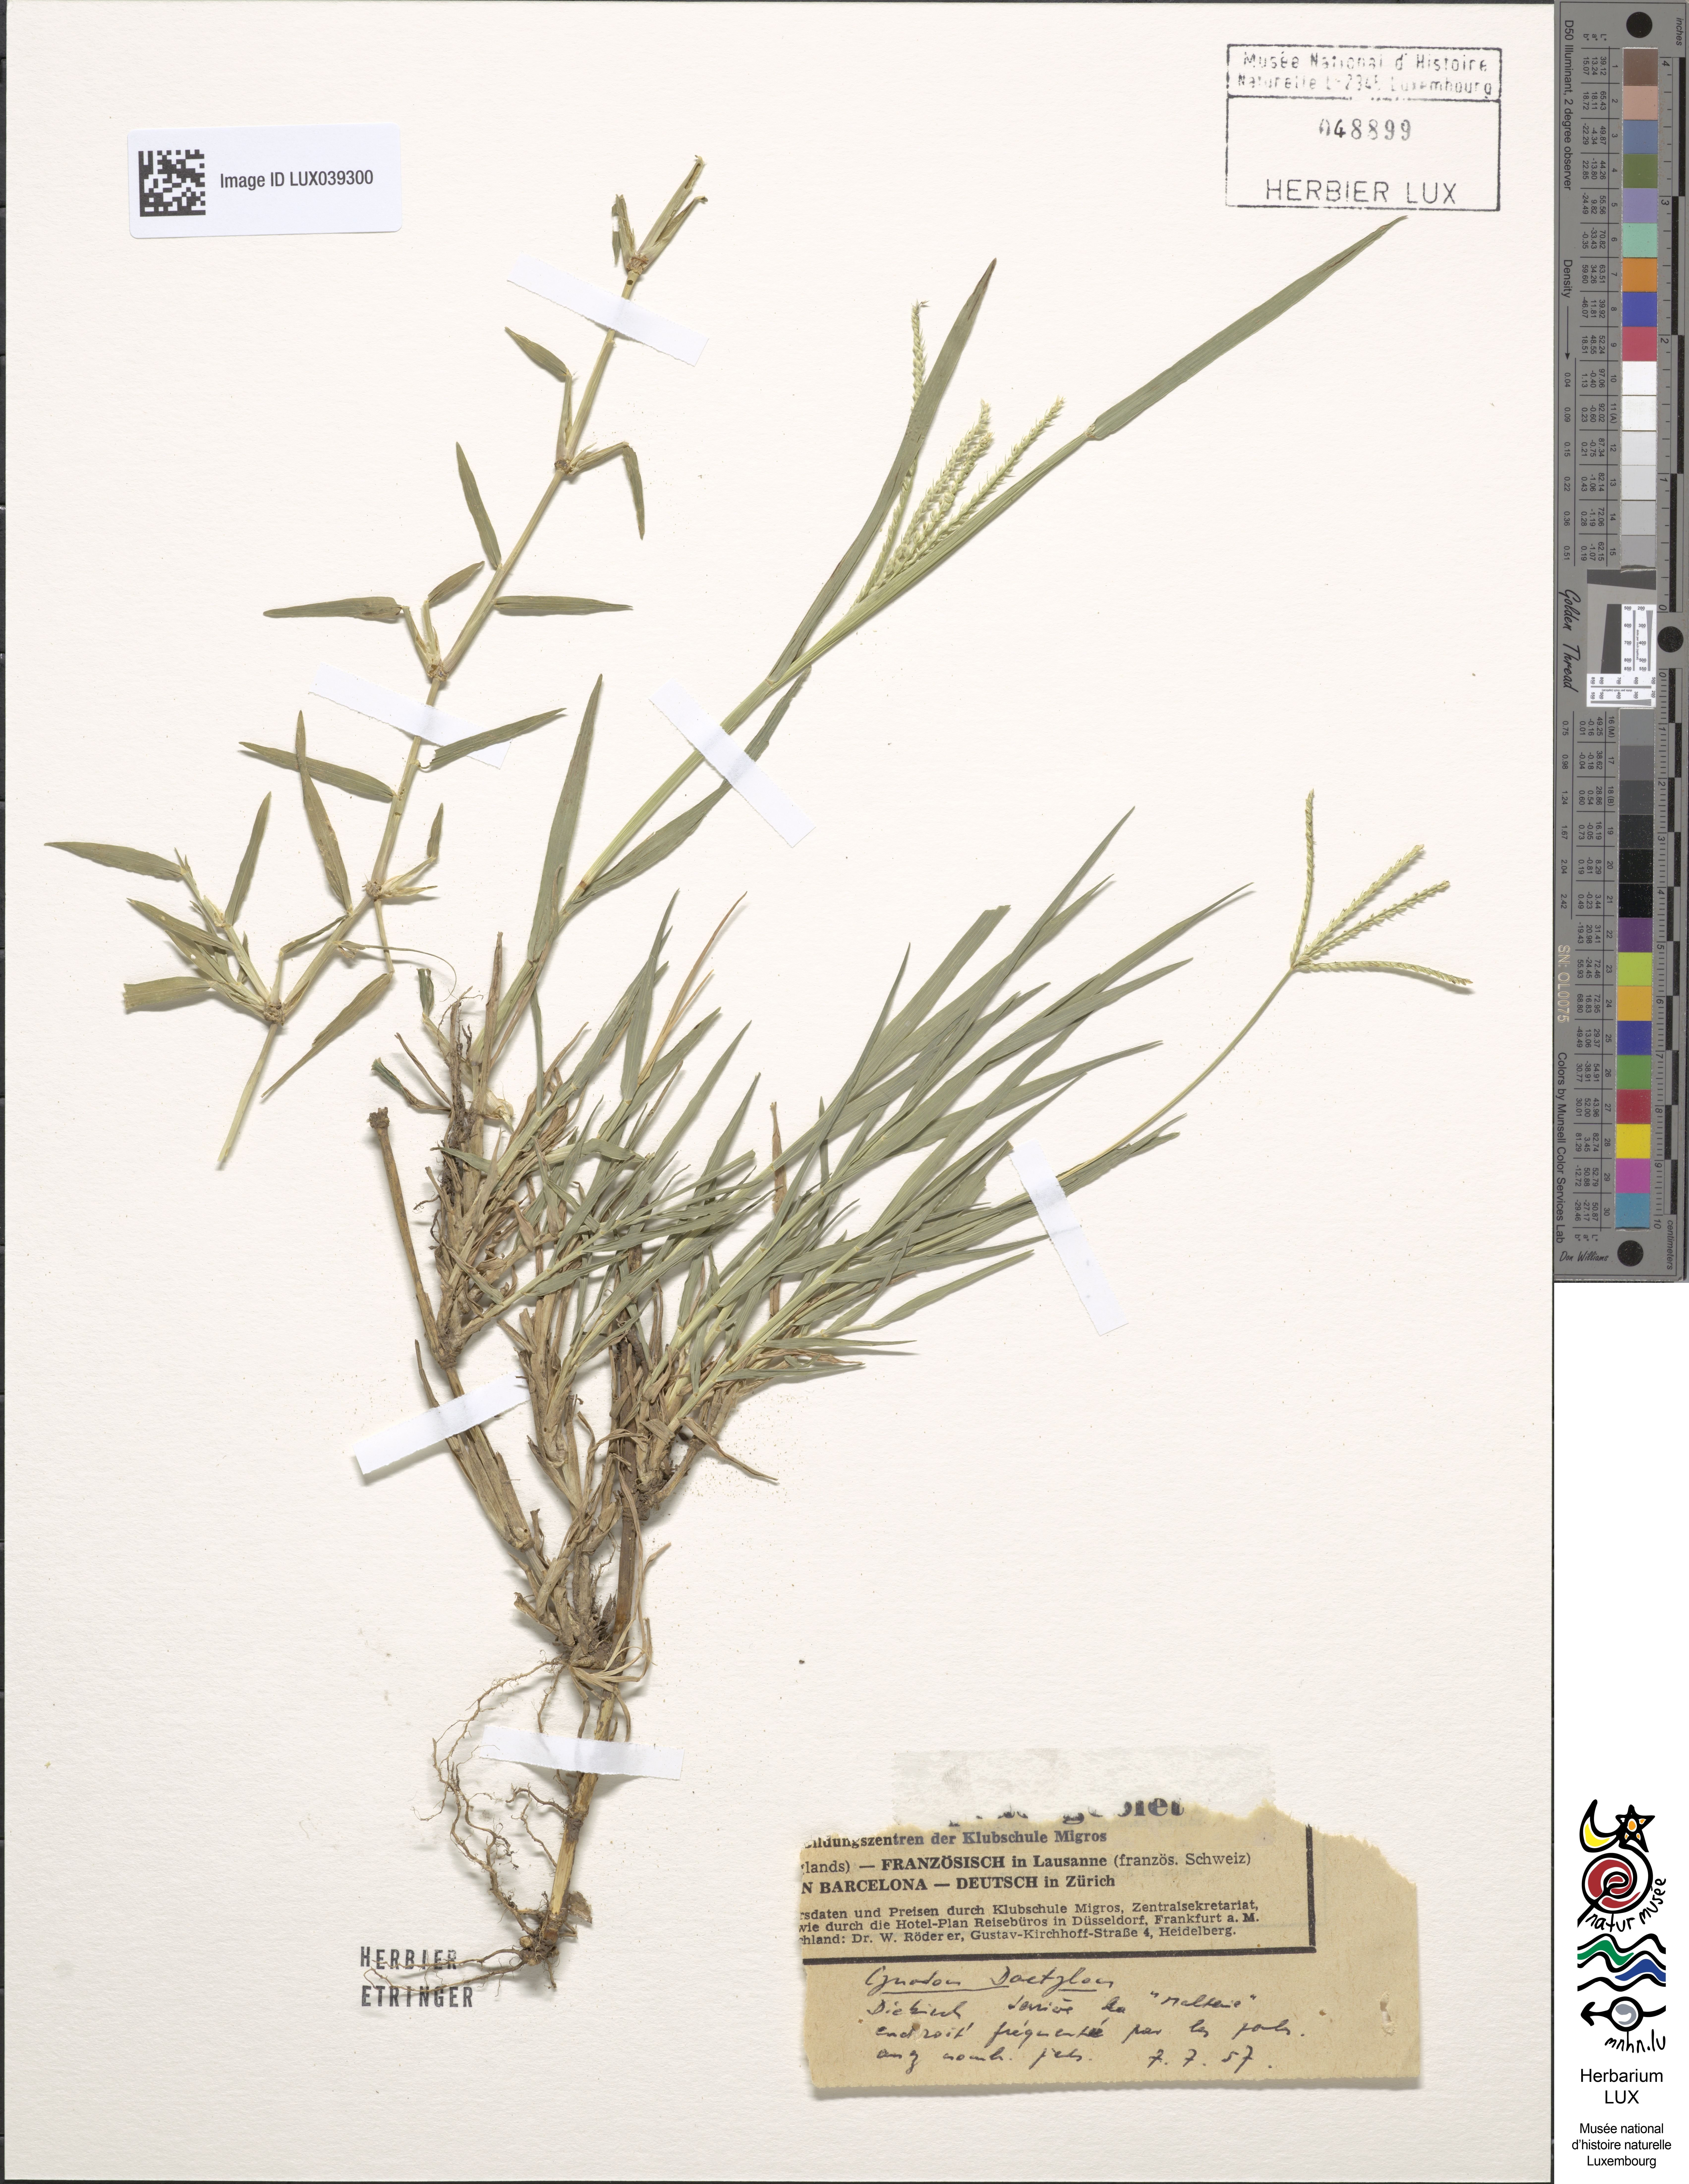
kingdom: Plantae
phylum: Tracheophyta
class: Liliopsida
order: Poales
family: Poaceae
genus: Cynodon
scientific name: Cynodon dactylon
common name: Bermuda grass
